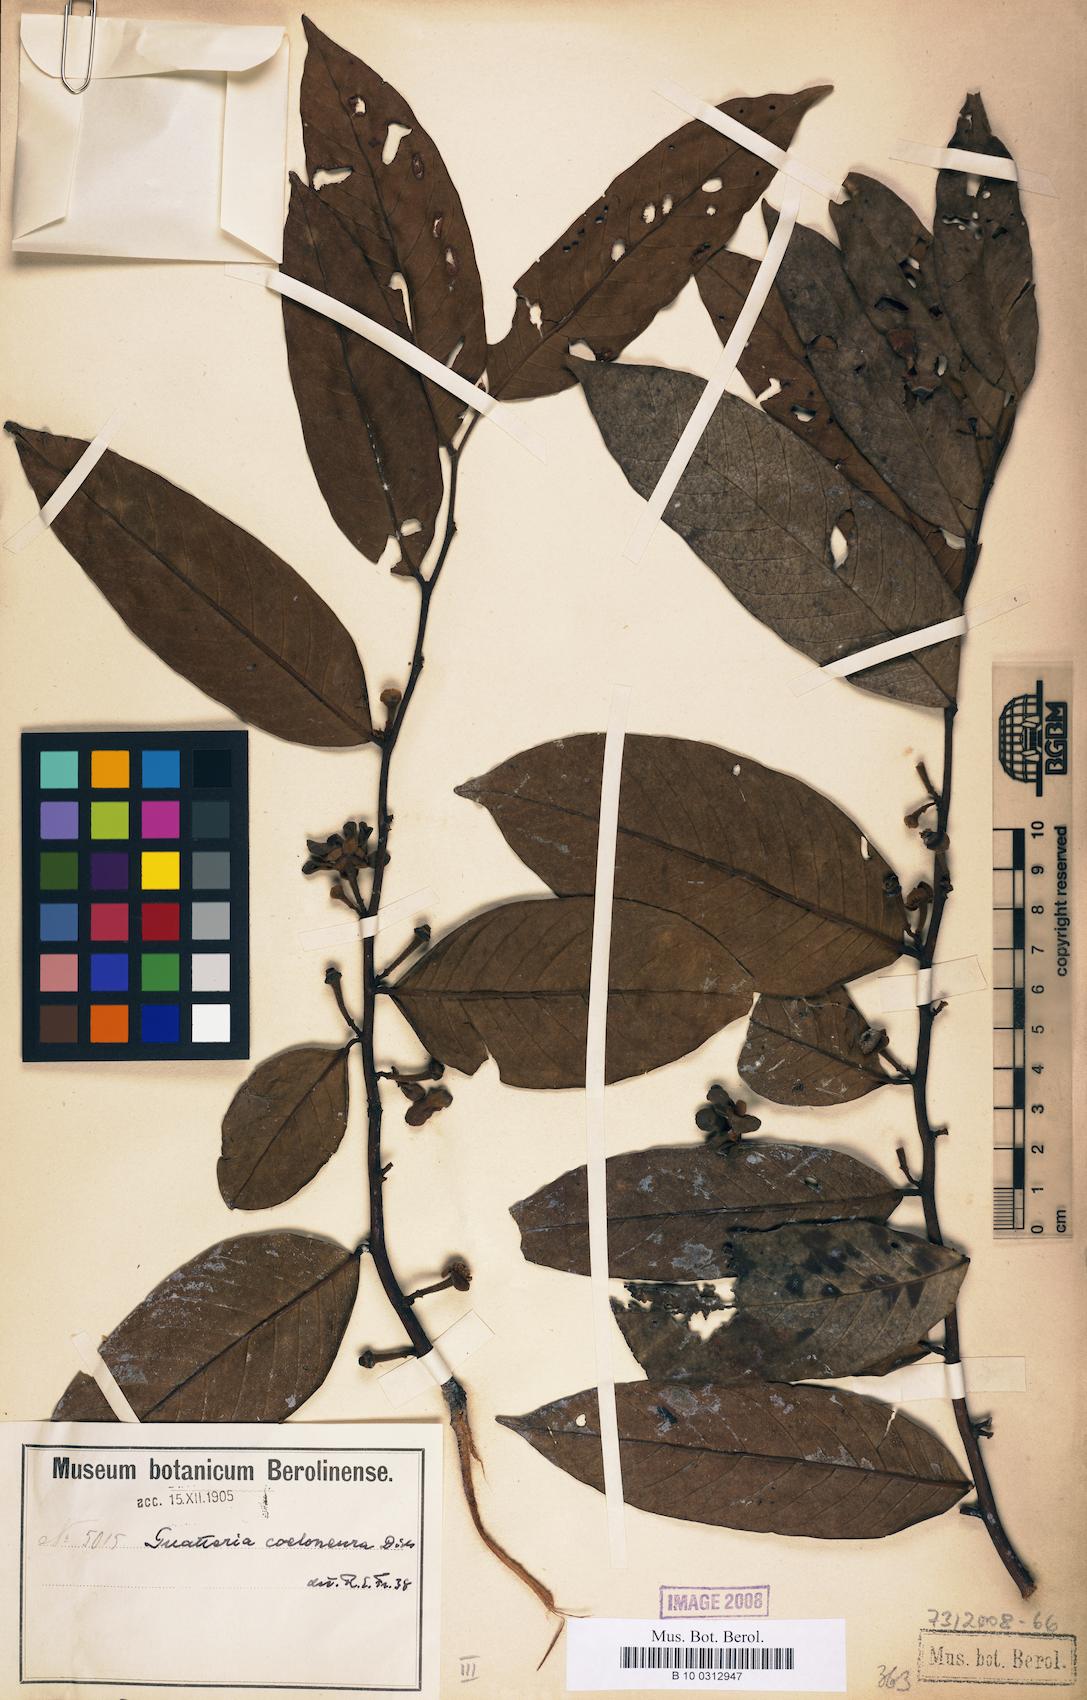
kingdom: Plantae
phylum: Tracheophyta
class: Magnoliopsida
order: Magnoliales
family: Annonaceae
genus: Guatteria
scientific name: Guatteria punctata
